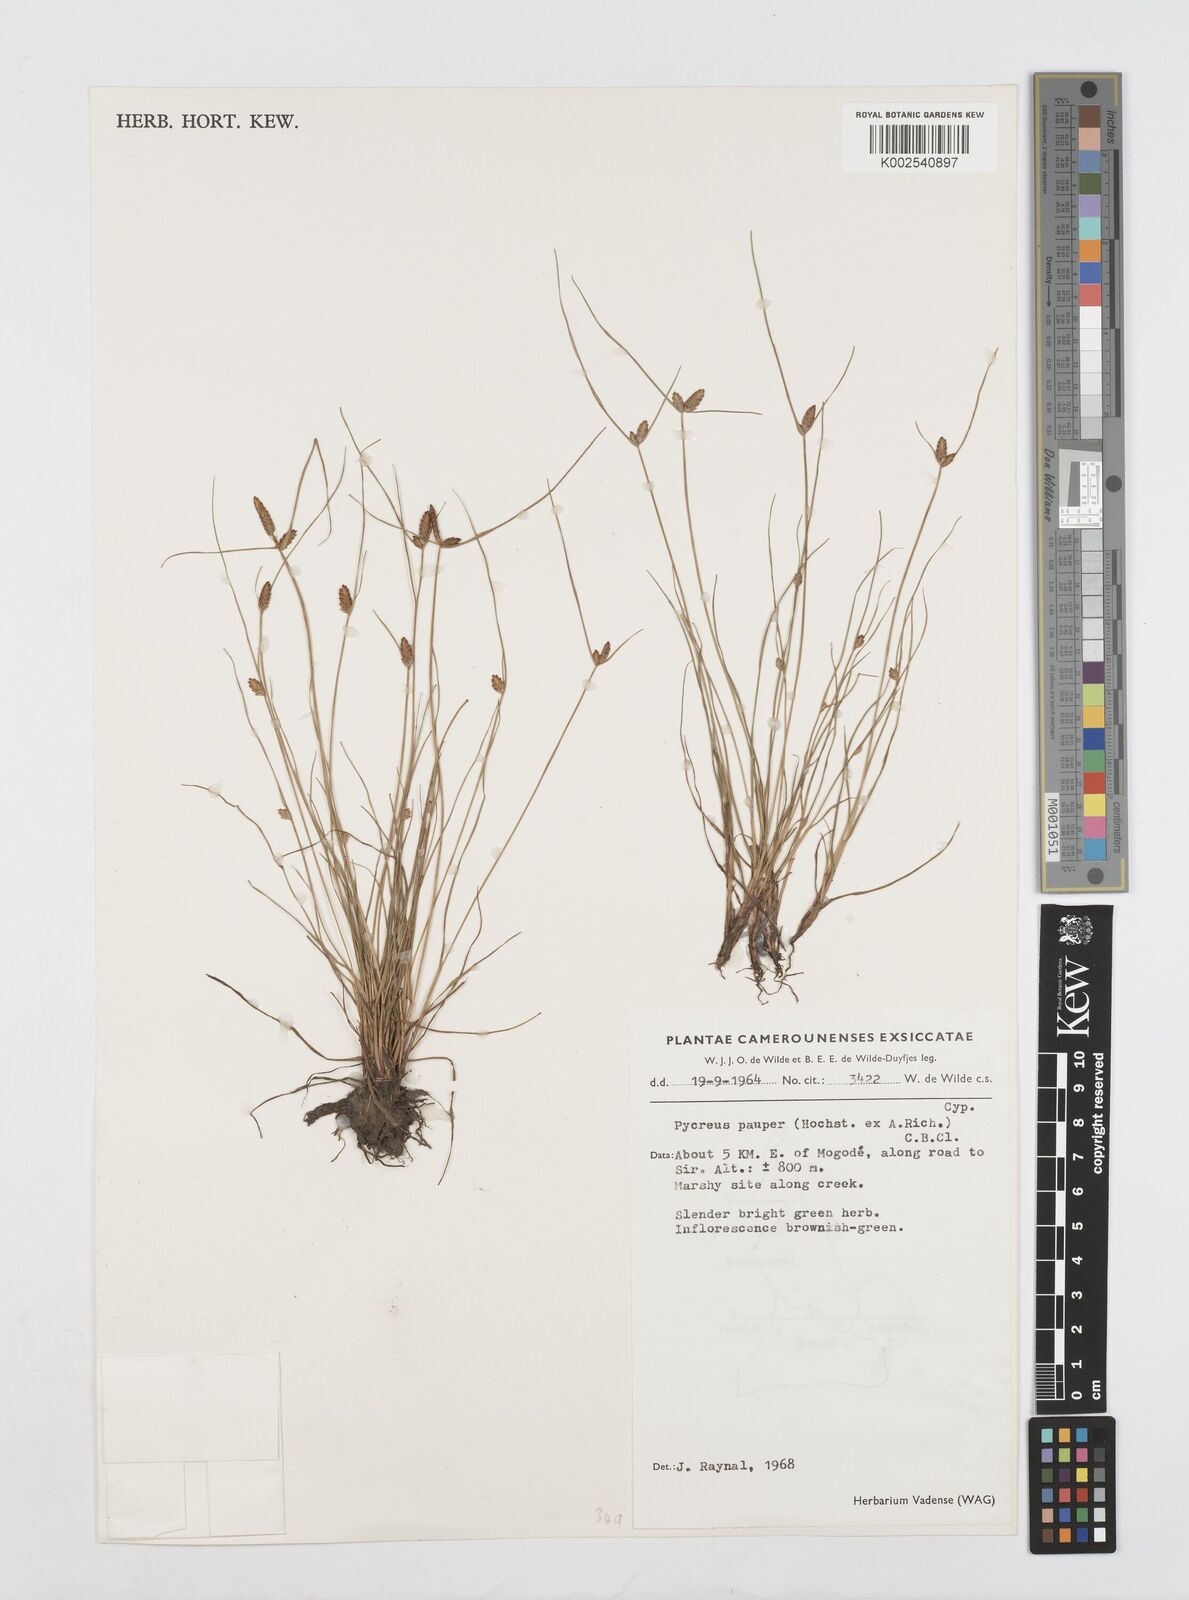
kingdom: Plantae
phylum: Tracheophyta
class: Liliopsida
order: Poales
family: Cyperaceae
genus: Cyperus
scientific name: Cyperus pauper
